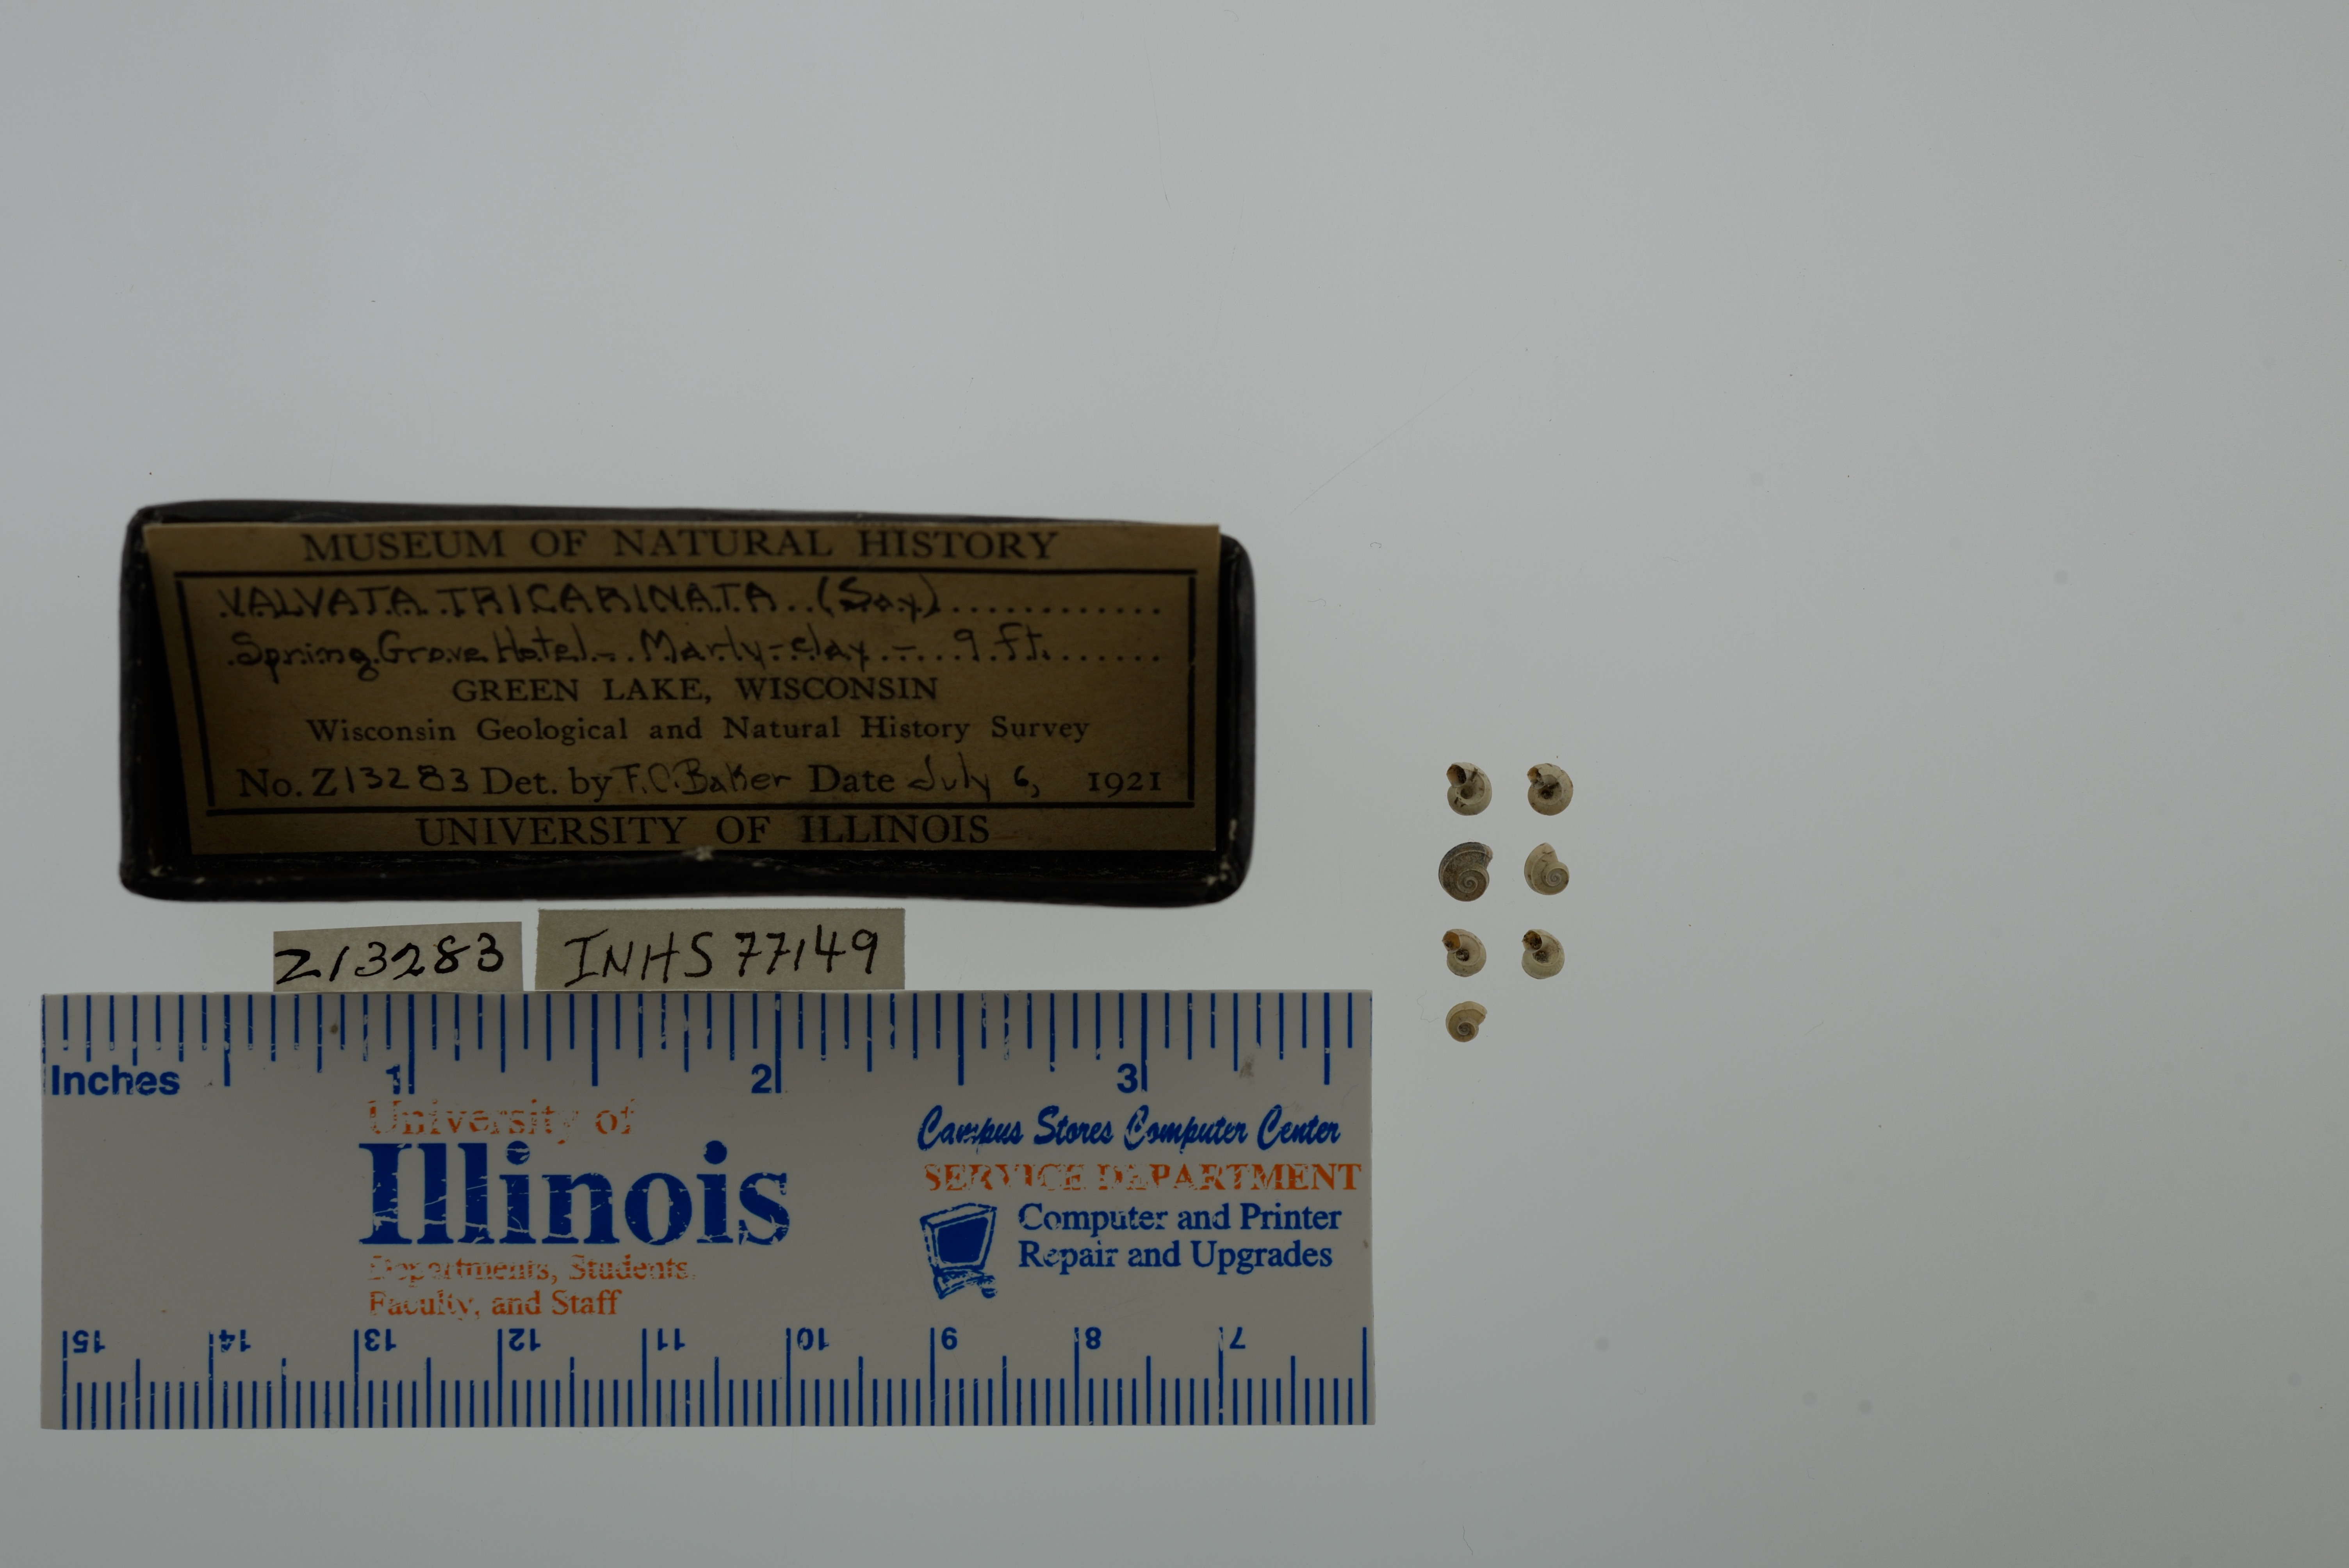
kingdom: Animalia
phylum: Mollusca
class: Gastropoda
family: Valvatidae
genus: Valvata
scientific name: Valvata tricarinata
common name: Three-ridge valvata
